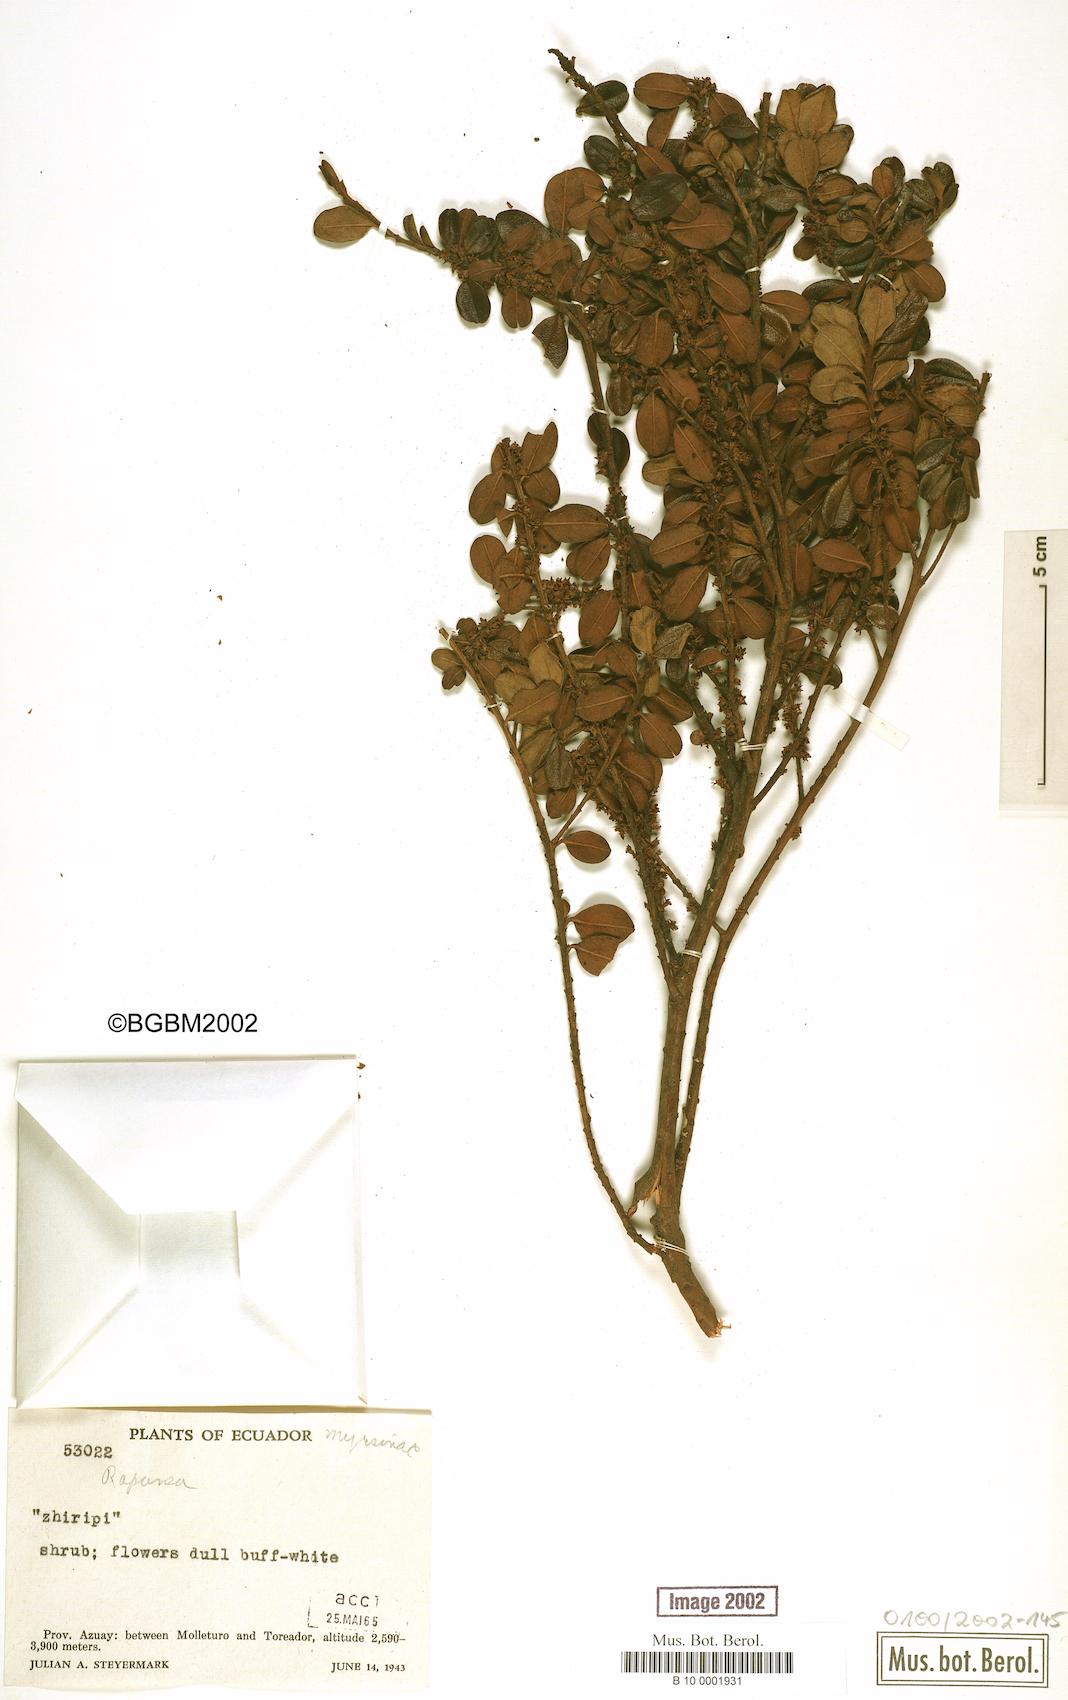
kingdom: Plantae
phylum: Tracheophyta
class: Magnoliopsida
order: Ericales
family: Primulaceae
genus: Myrsine
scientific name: Myrsine
